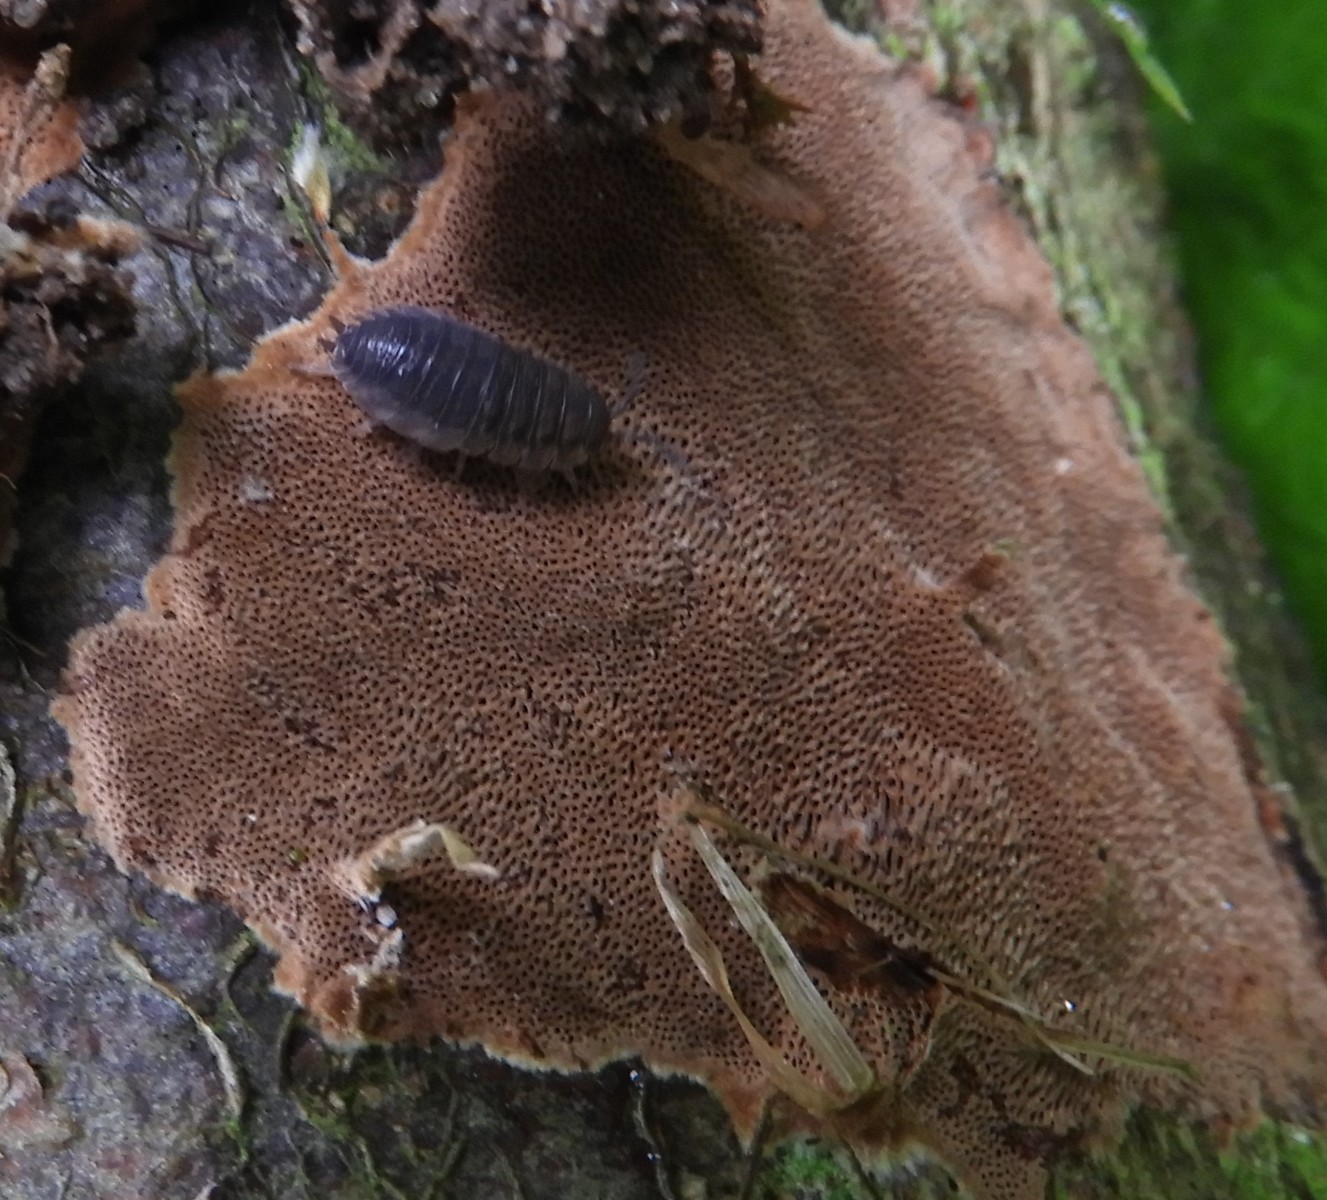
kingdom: Fungi
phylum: Basidiomycota
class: Agaricomycetes
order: Hymenochaetales
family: Hymenochaetaceae
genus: Fuscoporia
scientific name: Fuscoporia ferrea
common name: skorpe-ildporesvamp
